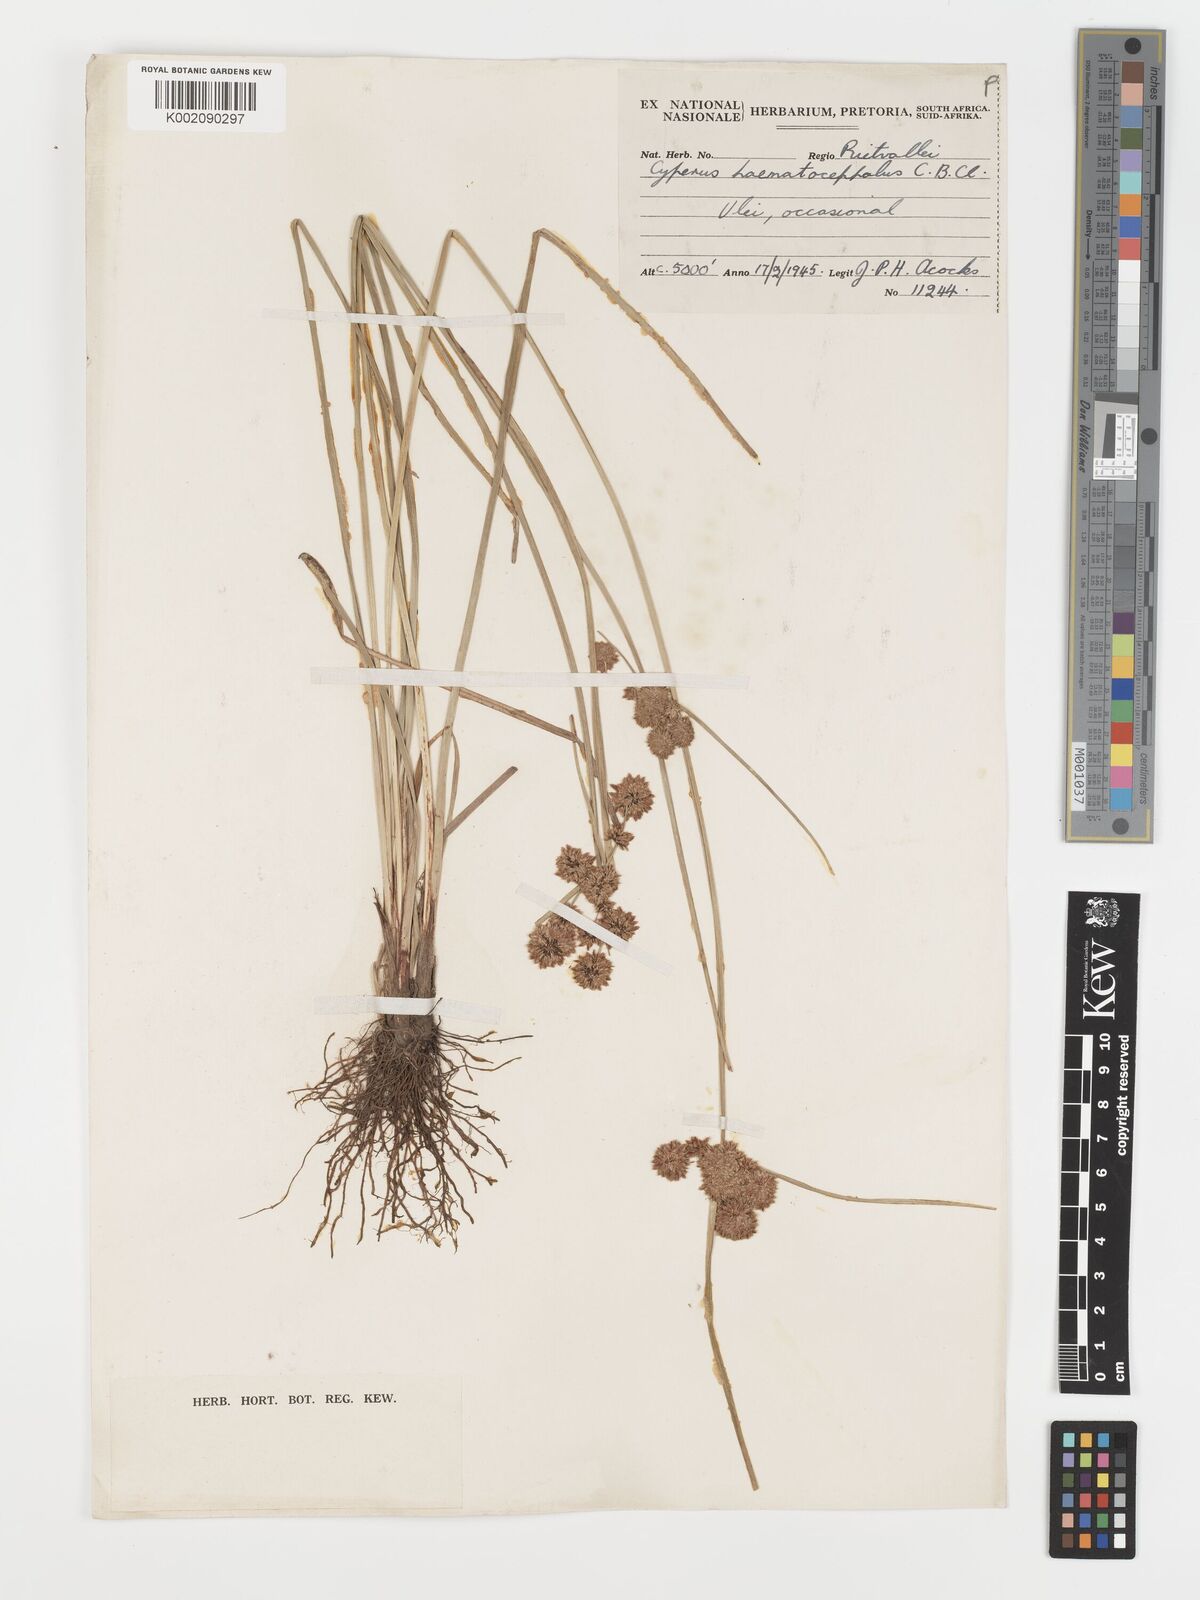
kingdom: Plantae
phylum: Tracheophyta
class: Liliopsida
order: Poales
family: Cyperaceae
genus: Cyperus
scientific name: Cyperus haematocephalus
